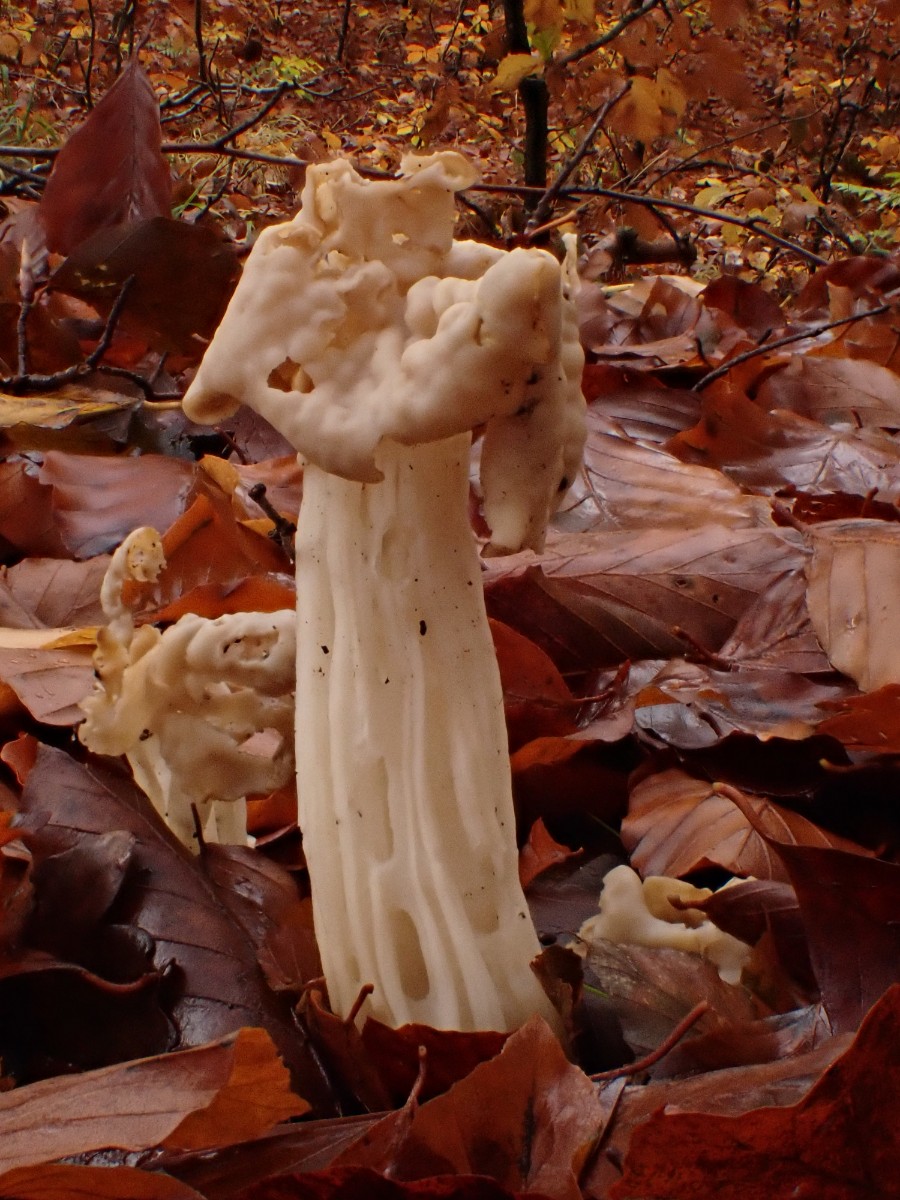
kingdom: Fungi
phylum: Ascomycota
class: Pezizomycetes
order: Pezizales
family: Helvellaceae
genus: Helvella
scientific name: Helvella crispa
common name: kruset foldhat
